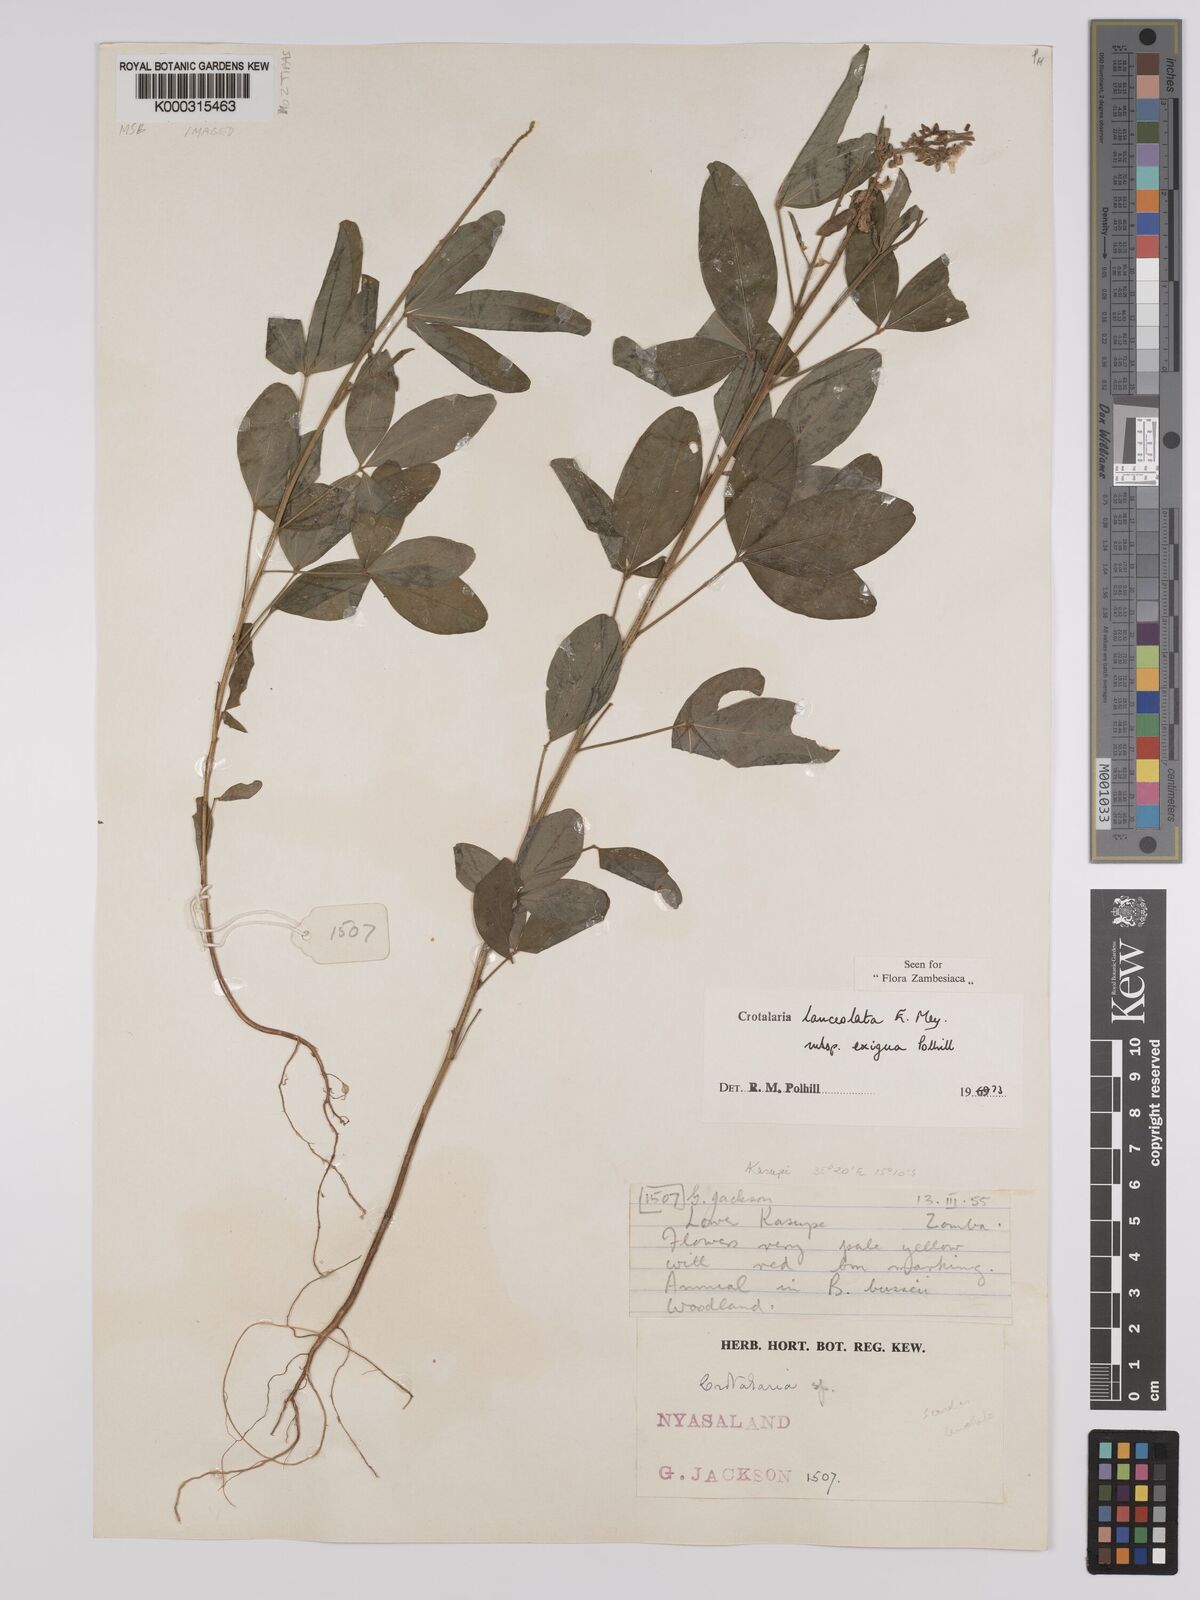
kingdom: Plantae
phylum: Tracheophyta
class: Magnoliopsida
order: Fabales
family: Fabaceae
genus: Crotalaria
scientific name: Crotalaria lanceolata
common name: Lanceleaf rattlebox
